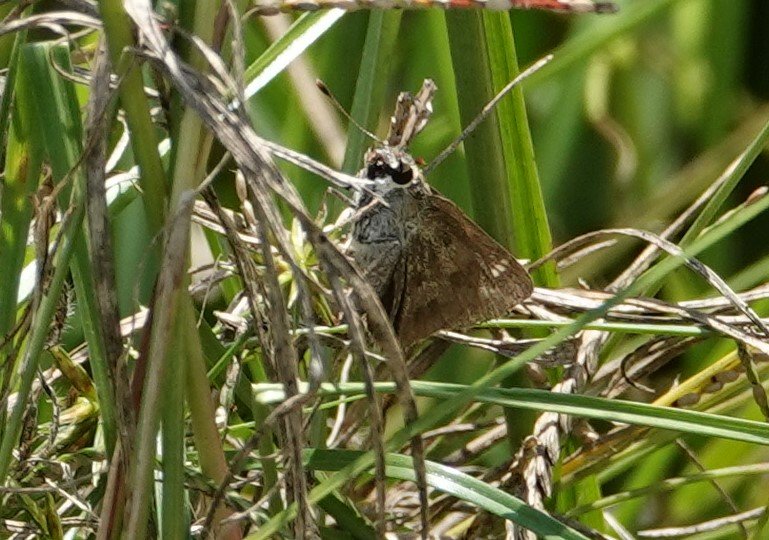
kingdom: Animalia
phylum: Arthropoda
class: Insecta
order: Lepidoptera
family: Hesperiidae
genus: Polites
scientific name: Polites vibex
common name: Whirlabout
